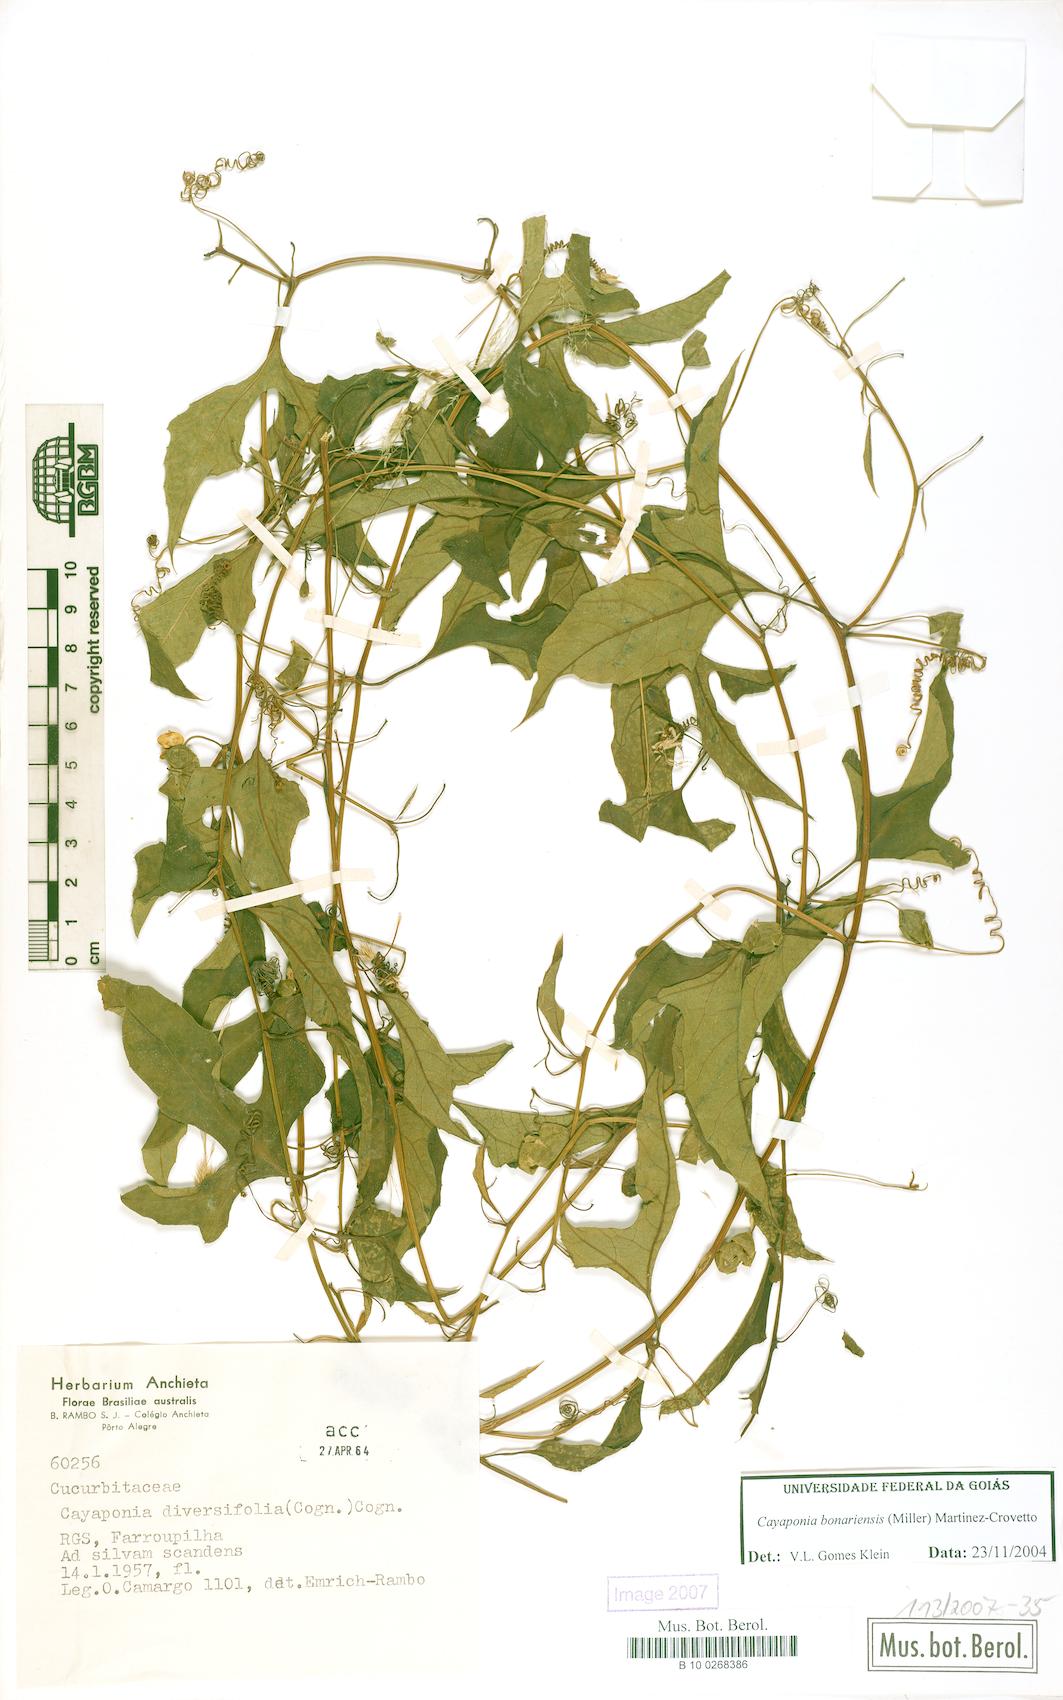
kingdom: Plantae
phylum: Tracheophyta
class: Magnoliopsida
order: Cucurbitales
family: Cucurbitaceae
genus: Cayaponia
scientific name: Cayaponia bonariensis
